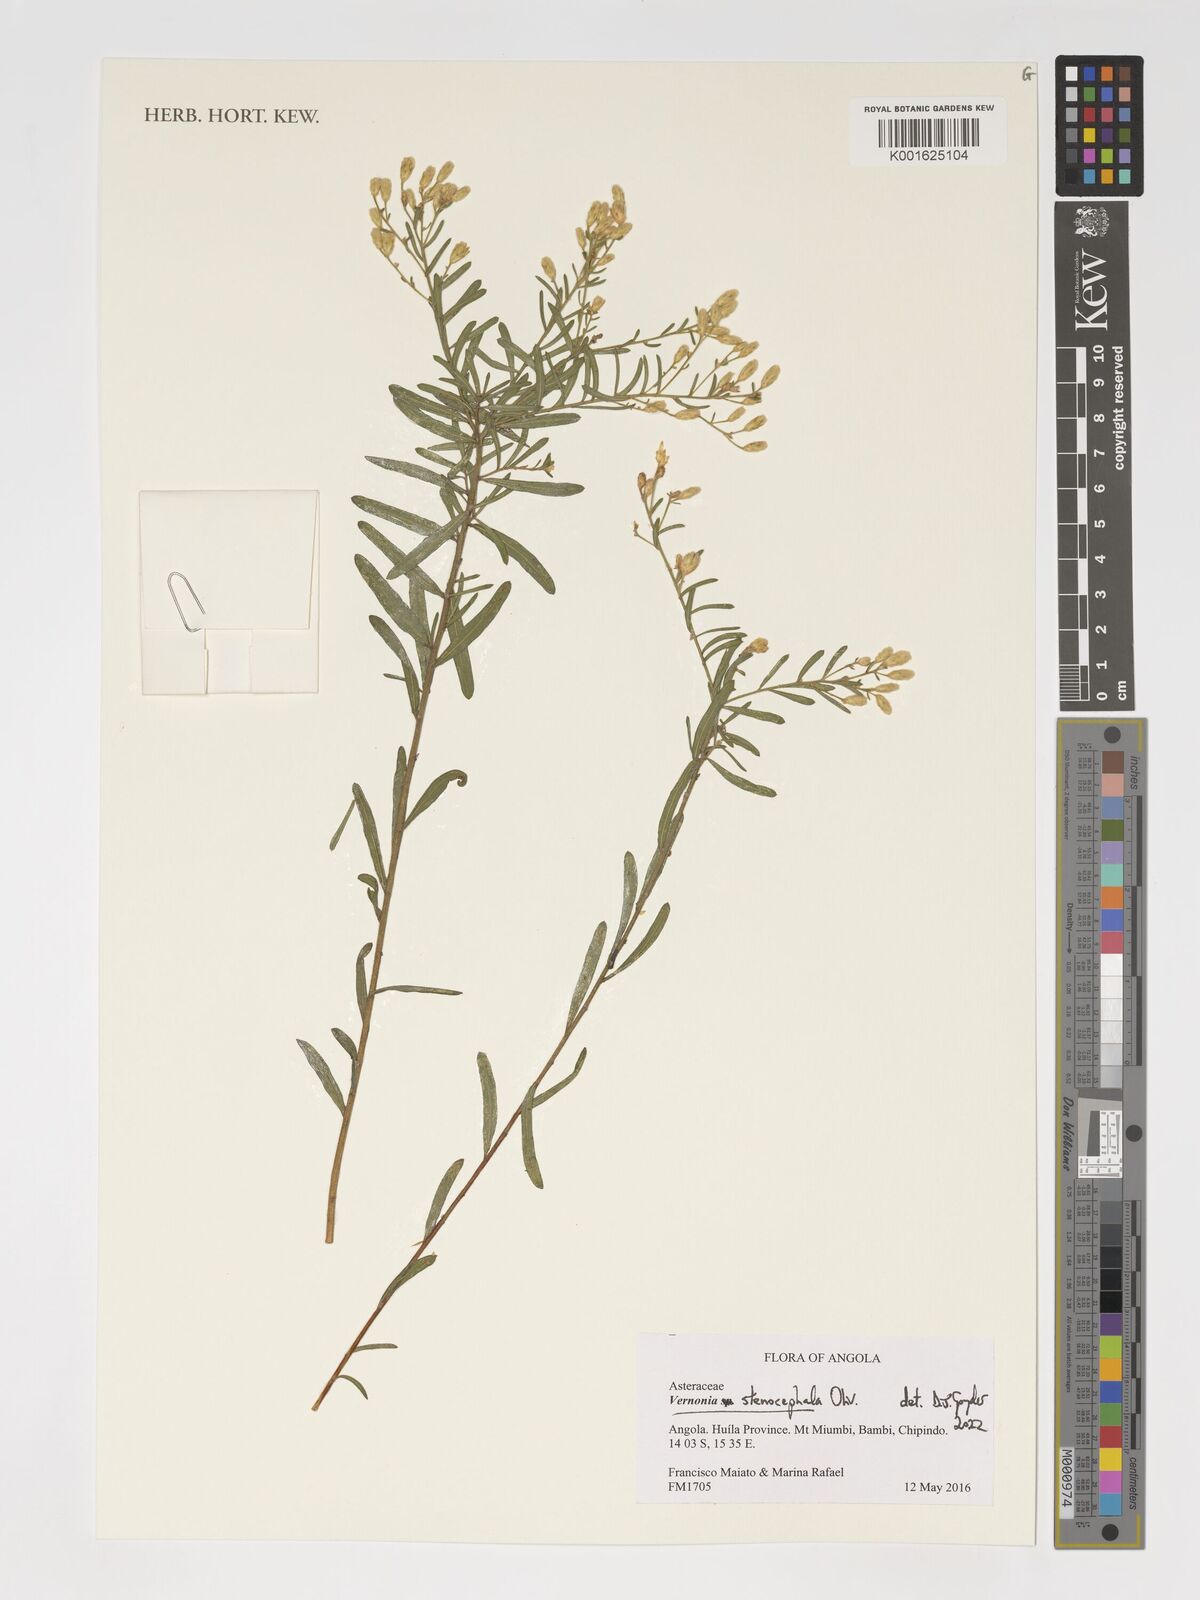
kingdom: Plantae
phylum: Tracheophyta
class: Magnoliopsida
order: Asterales
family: Asteraceae
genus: Oocephala
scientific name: Oocephala stenocephala
